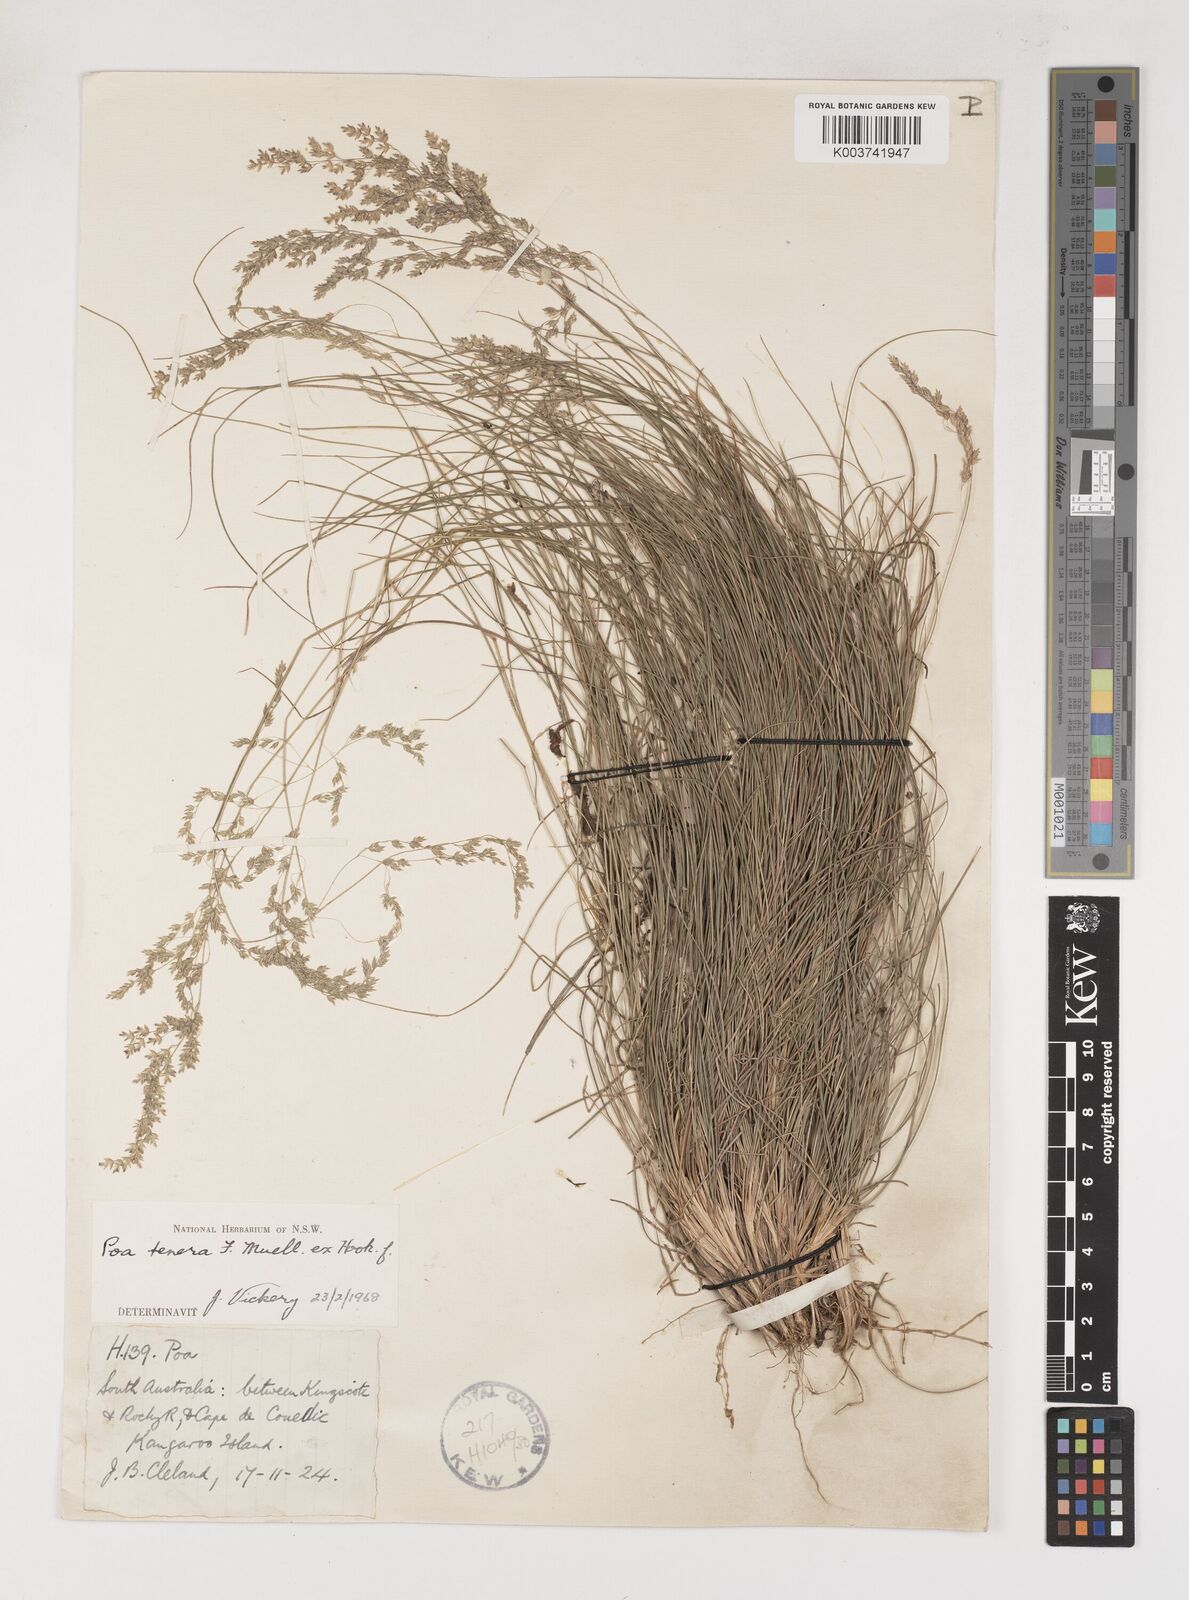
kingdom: Plantae
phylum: Tracheophyta
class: Liliopsida
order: Poales
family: Poaceae
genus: Poa
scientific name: Poa tenera
